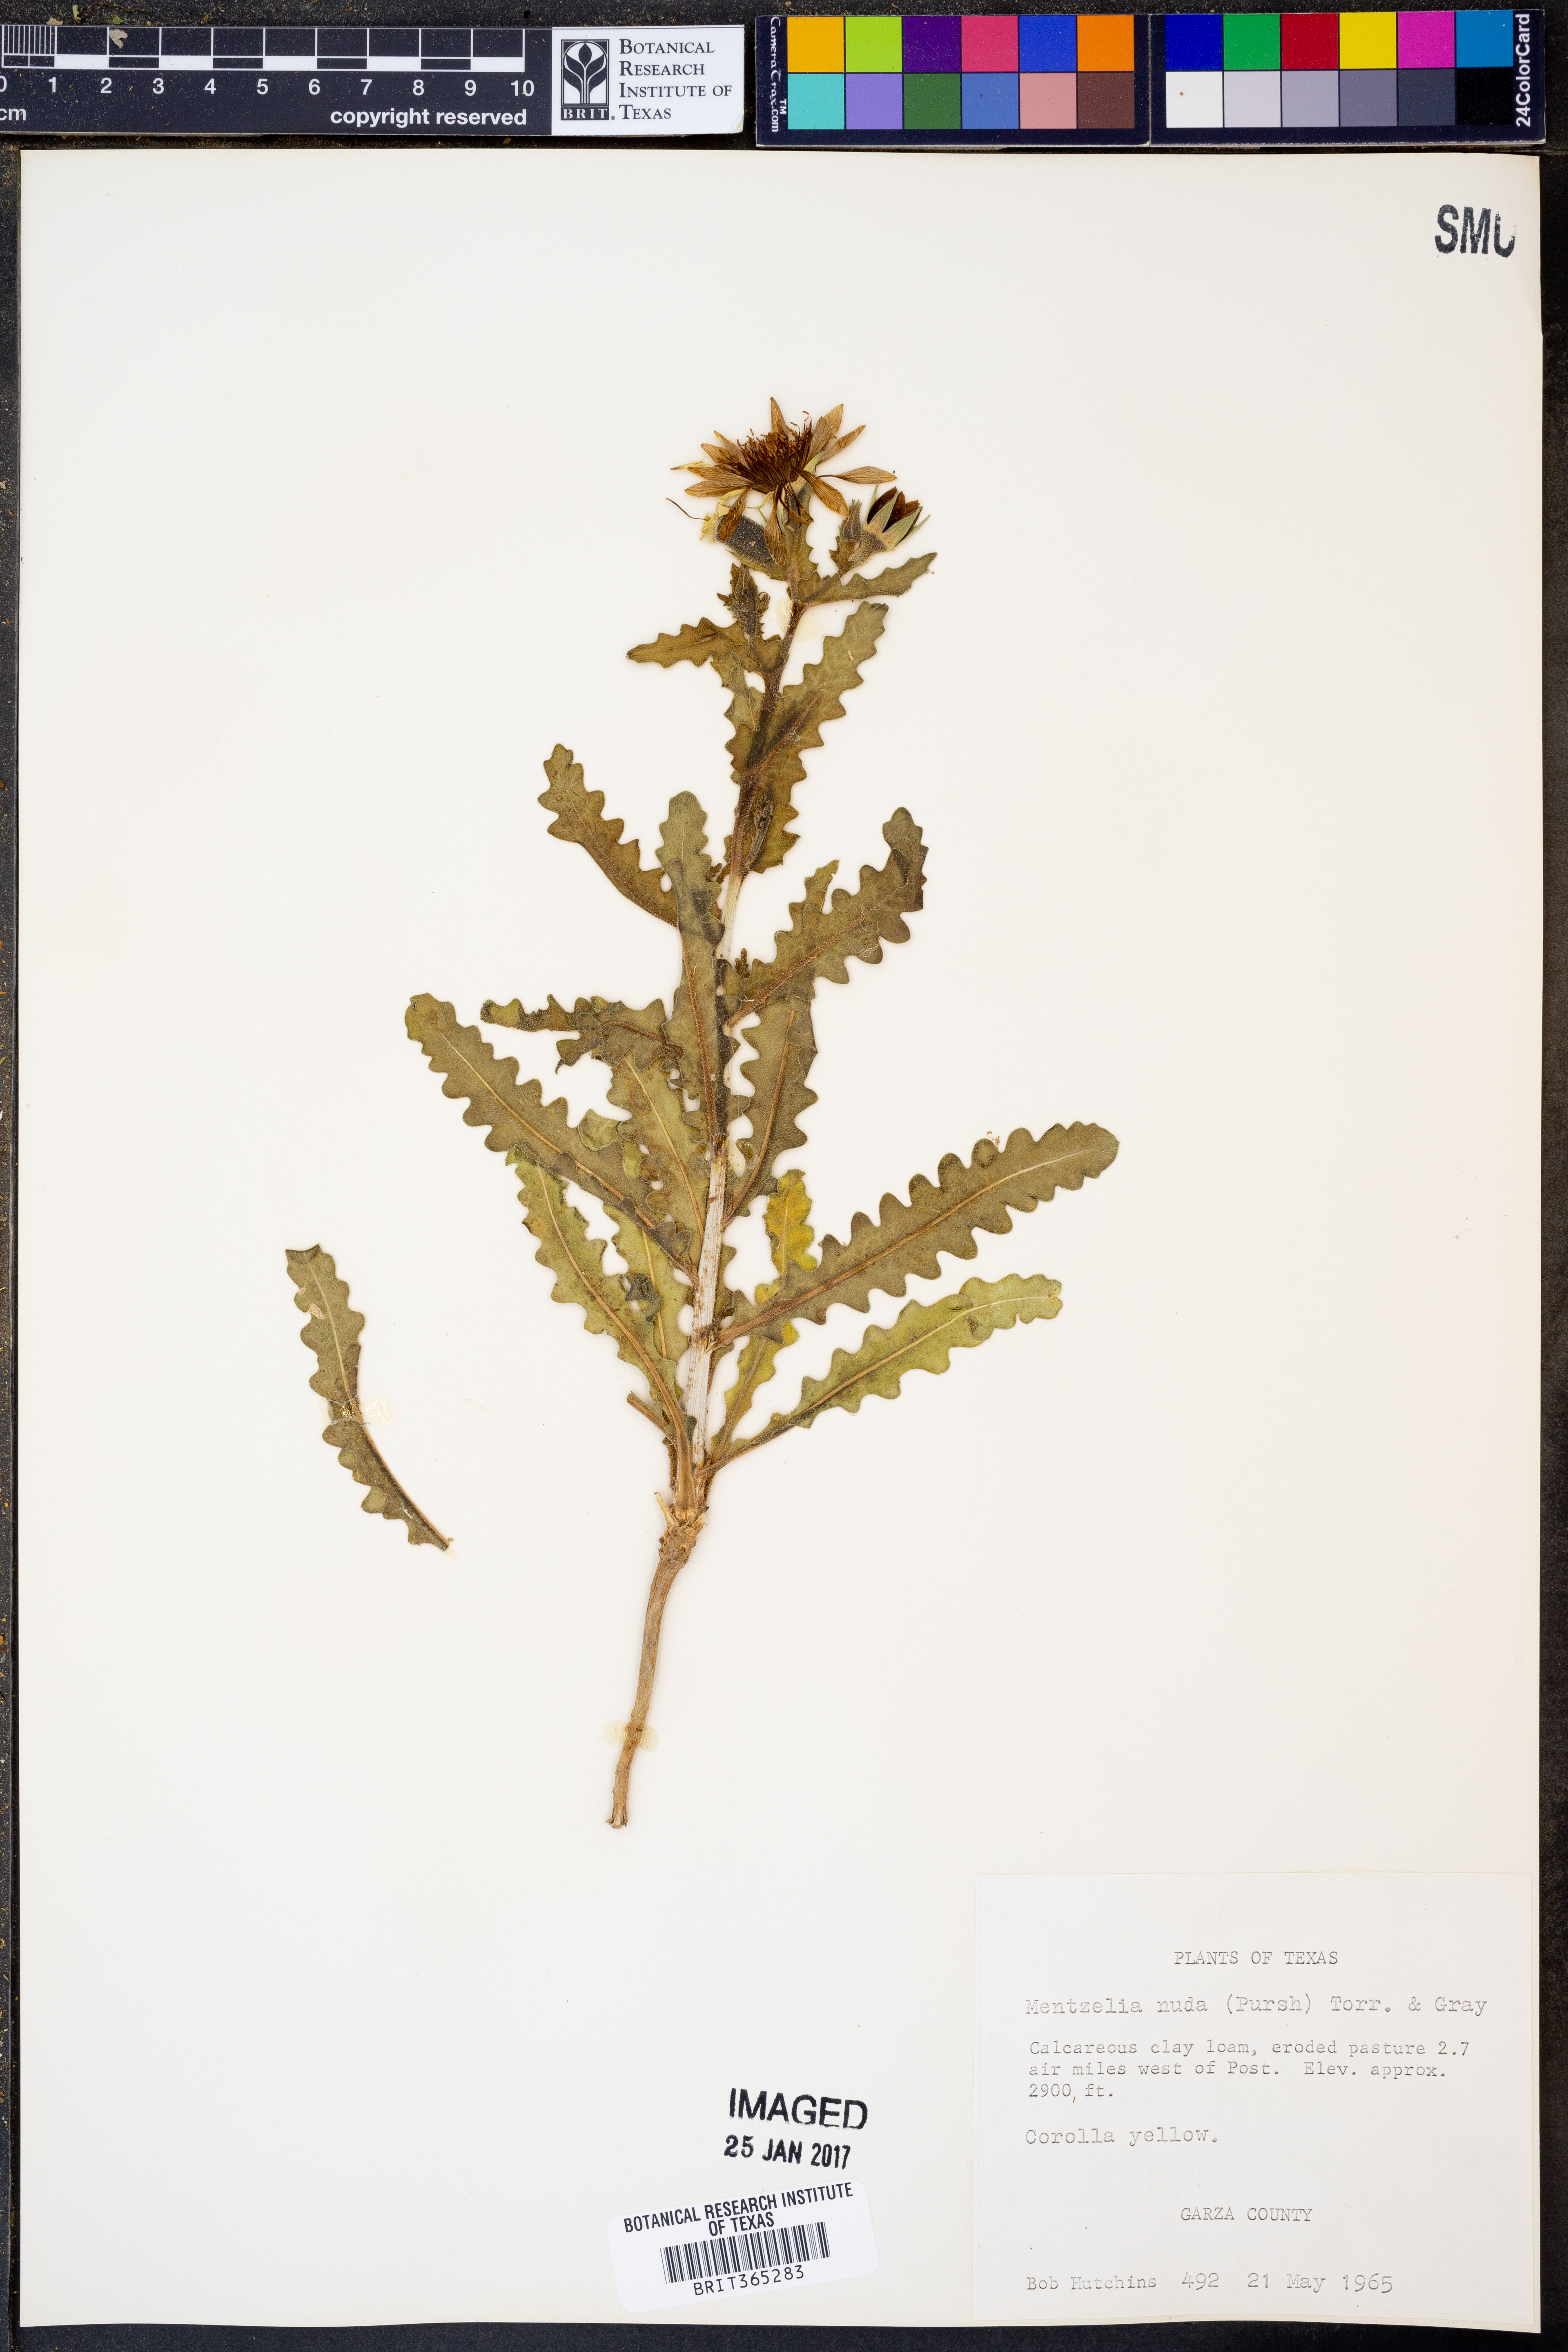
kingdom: Plantae
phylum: Tracheophyta
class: Magnoliopsida
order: Cornales
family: Loasaceae
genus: Mentzelia
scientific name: Mentzelia nuda
